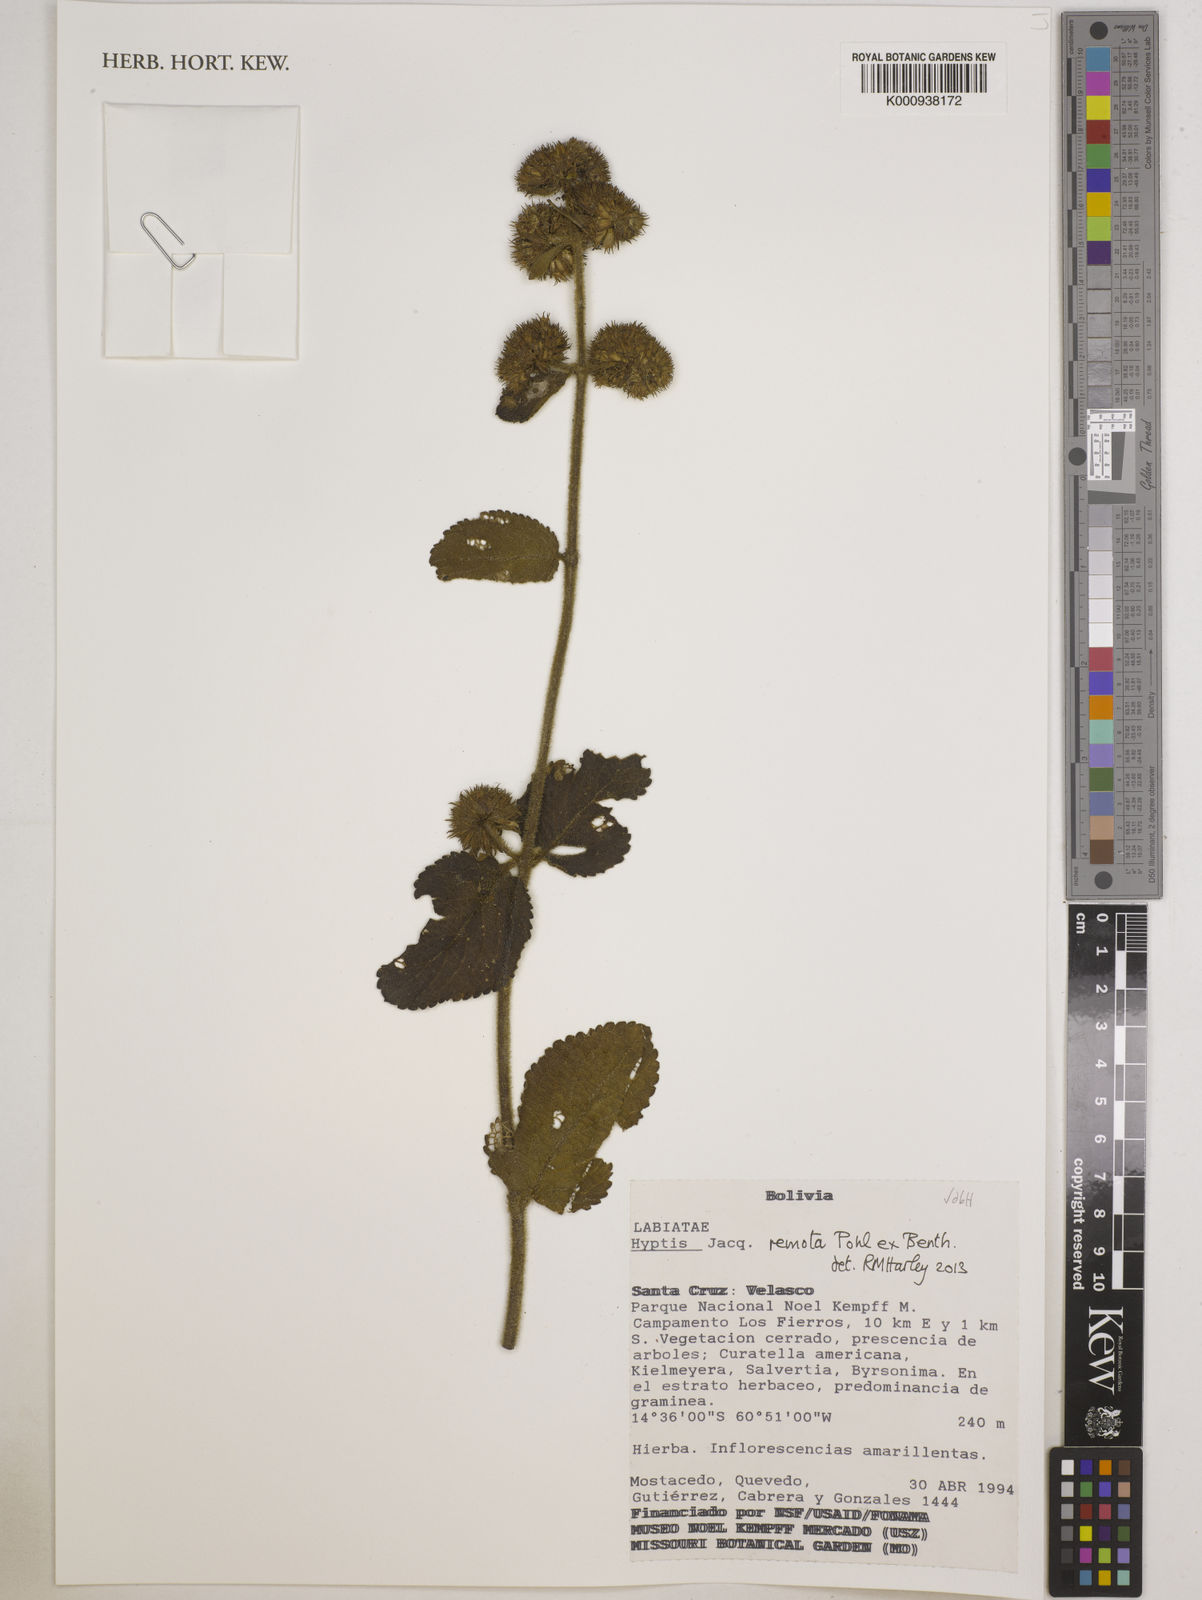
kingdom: Plantae
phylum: Tracheophyta
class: Magnoliopsida
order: Lamiales
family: Lamiaceae
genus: Hyptis
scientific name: Hyptis remota
